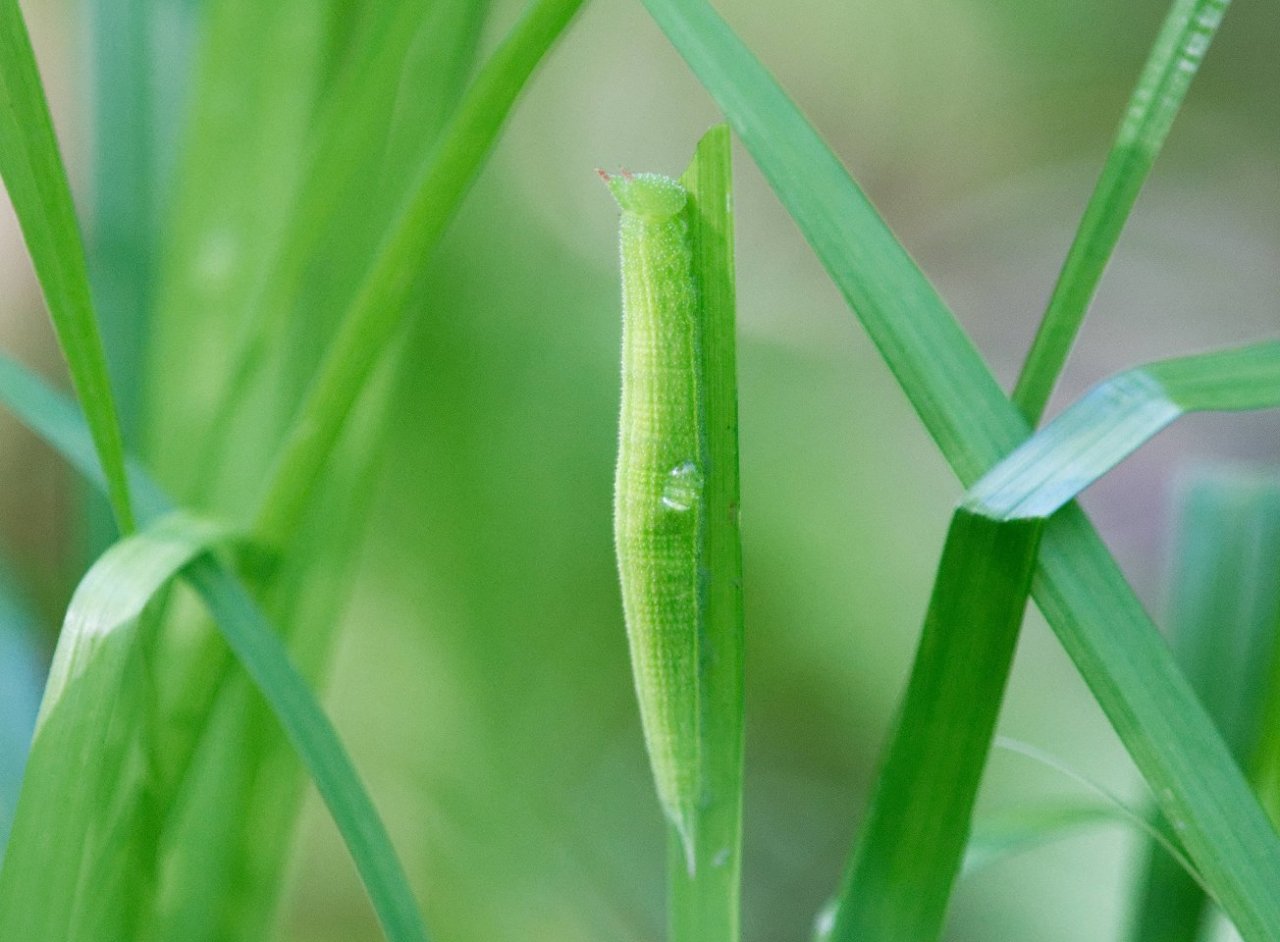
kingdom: Animalia
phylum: Arthropoda
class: Insecta
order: Lepidoptera
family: Nymphalidae
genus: Lethe
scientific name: Lethe anthedon
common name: Northern Pearly-Eye
